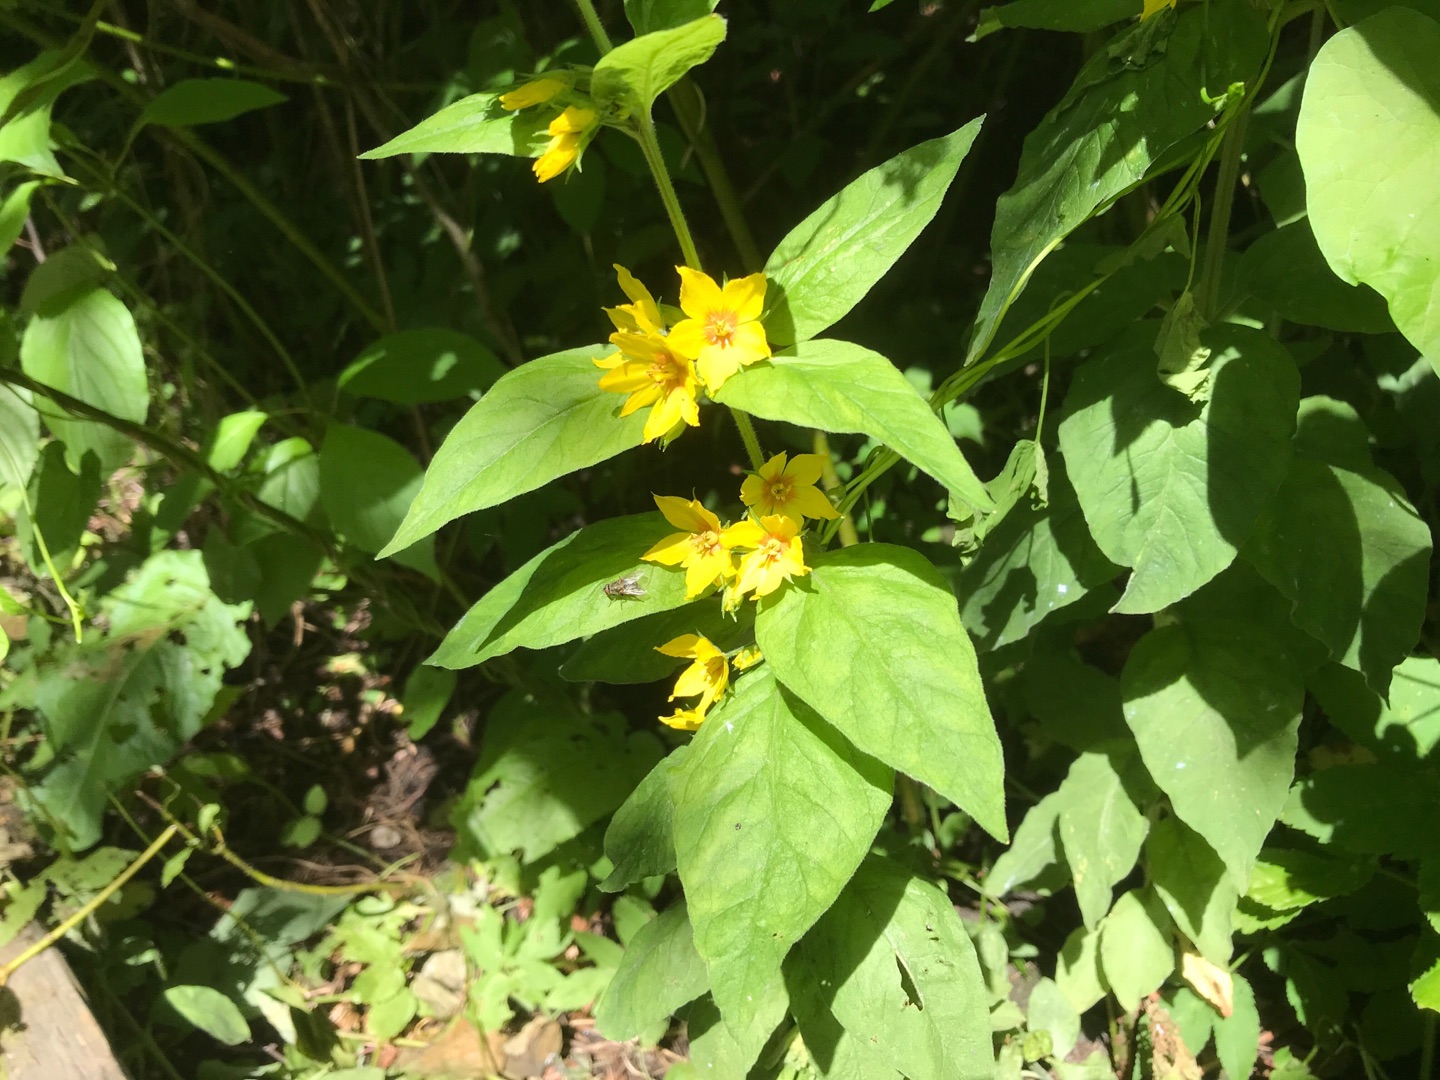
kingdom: Plantae
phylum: Tracheophyta
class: Magnoliopsida
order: Ericales
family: Primulaceae
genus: Lysimachia
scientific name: Lysimachia punctata
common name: Prikbladet fredløs
